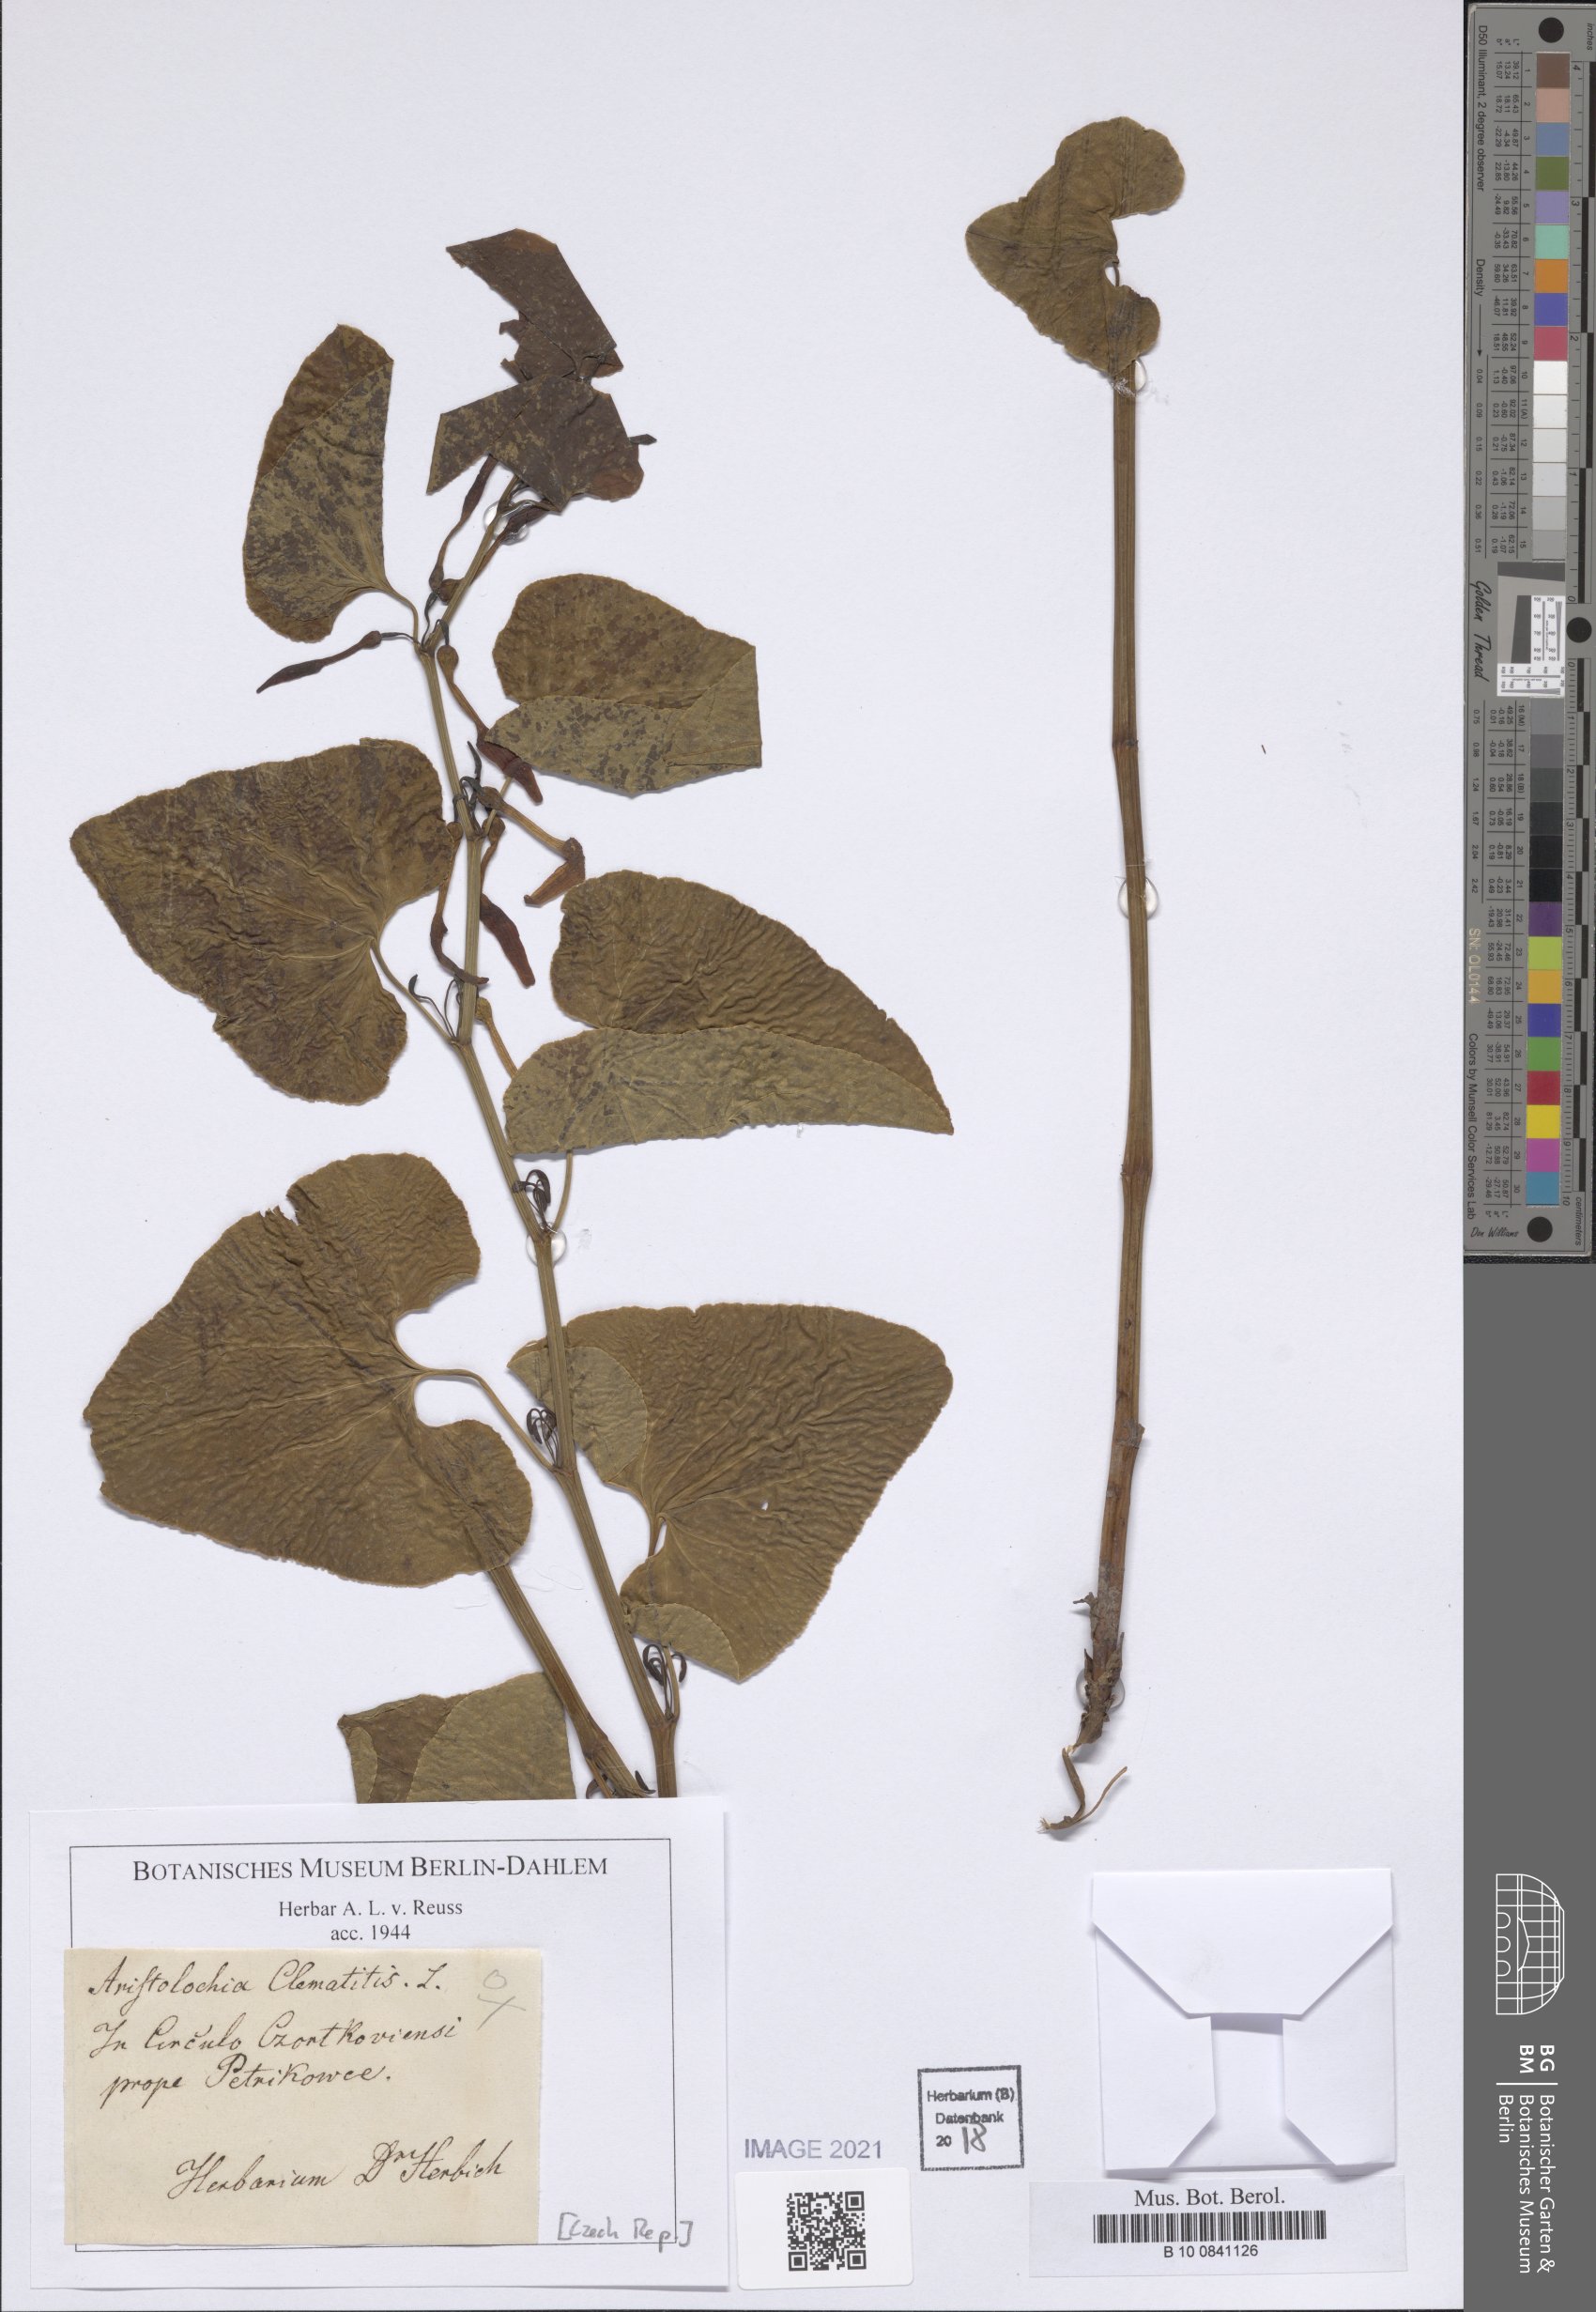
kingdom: Plantae
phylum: Tracheophyta
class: Magnoliopsida
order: Piperales
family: Aristolochiaceae
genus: Aristolochia
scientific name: Aristolochia clematitis
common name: Birthwort
